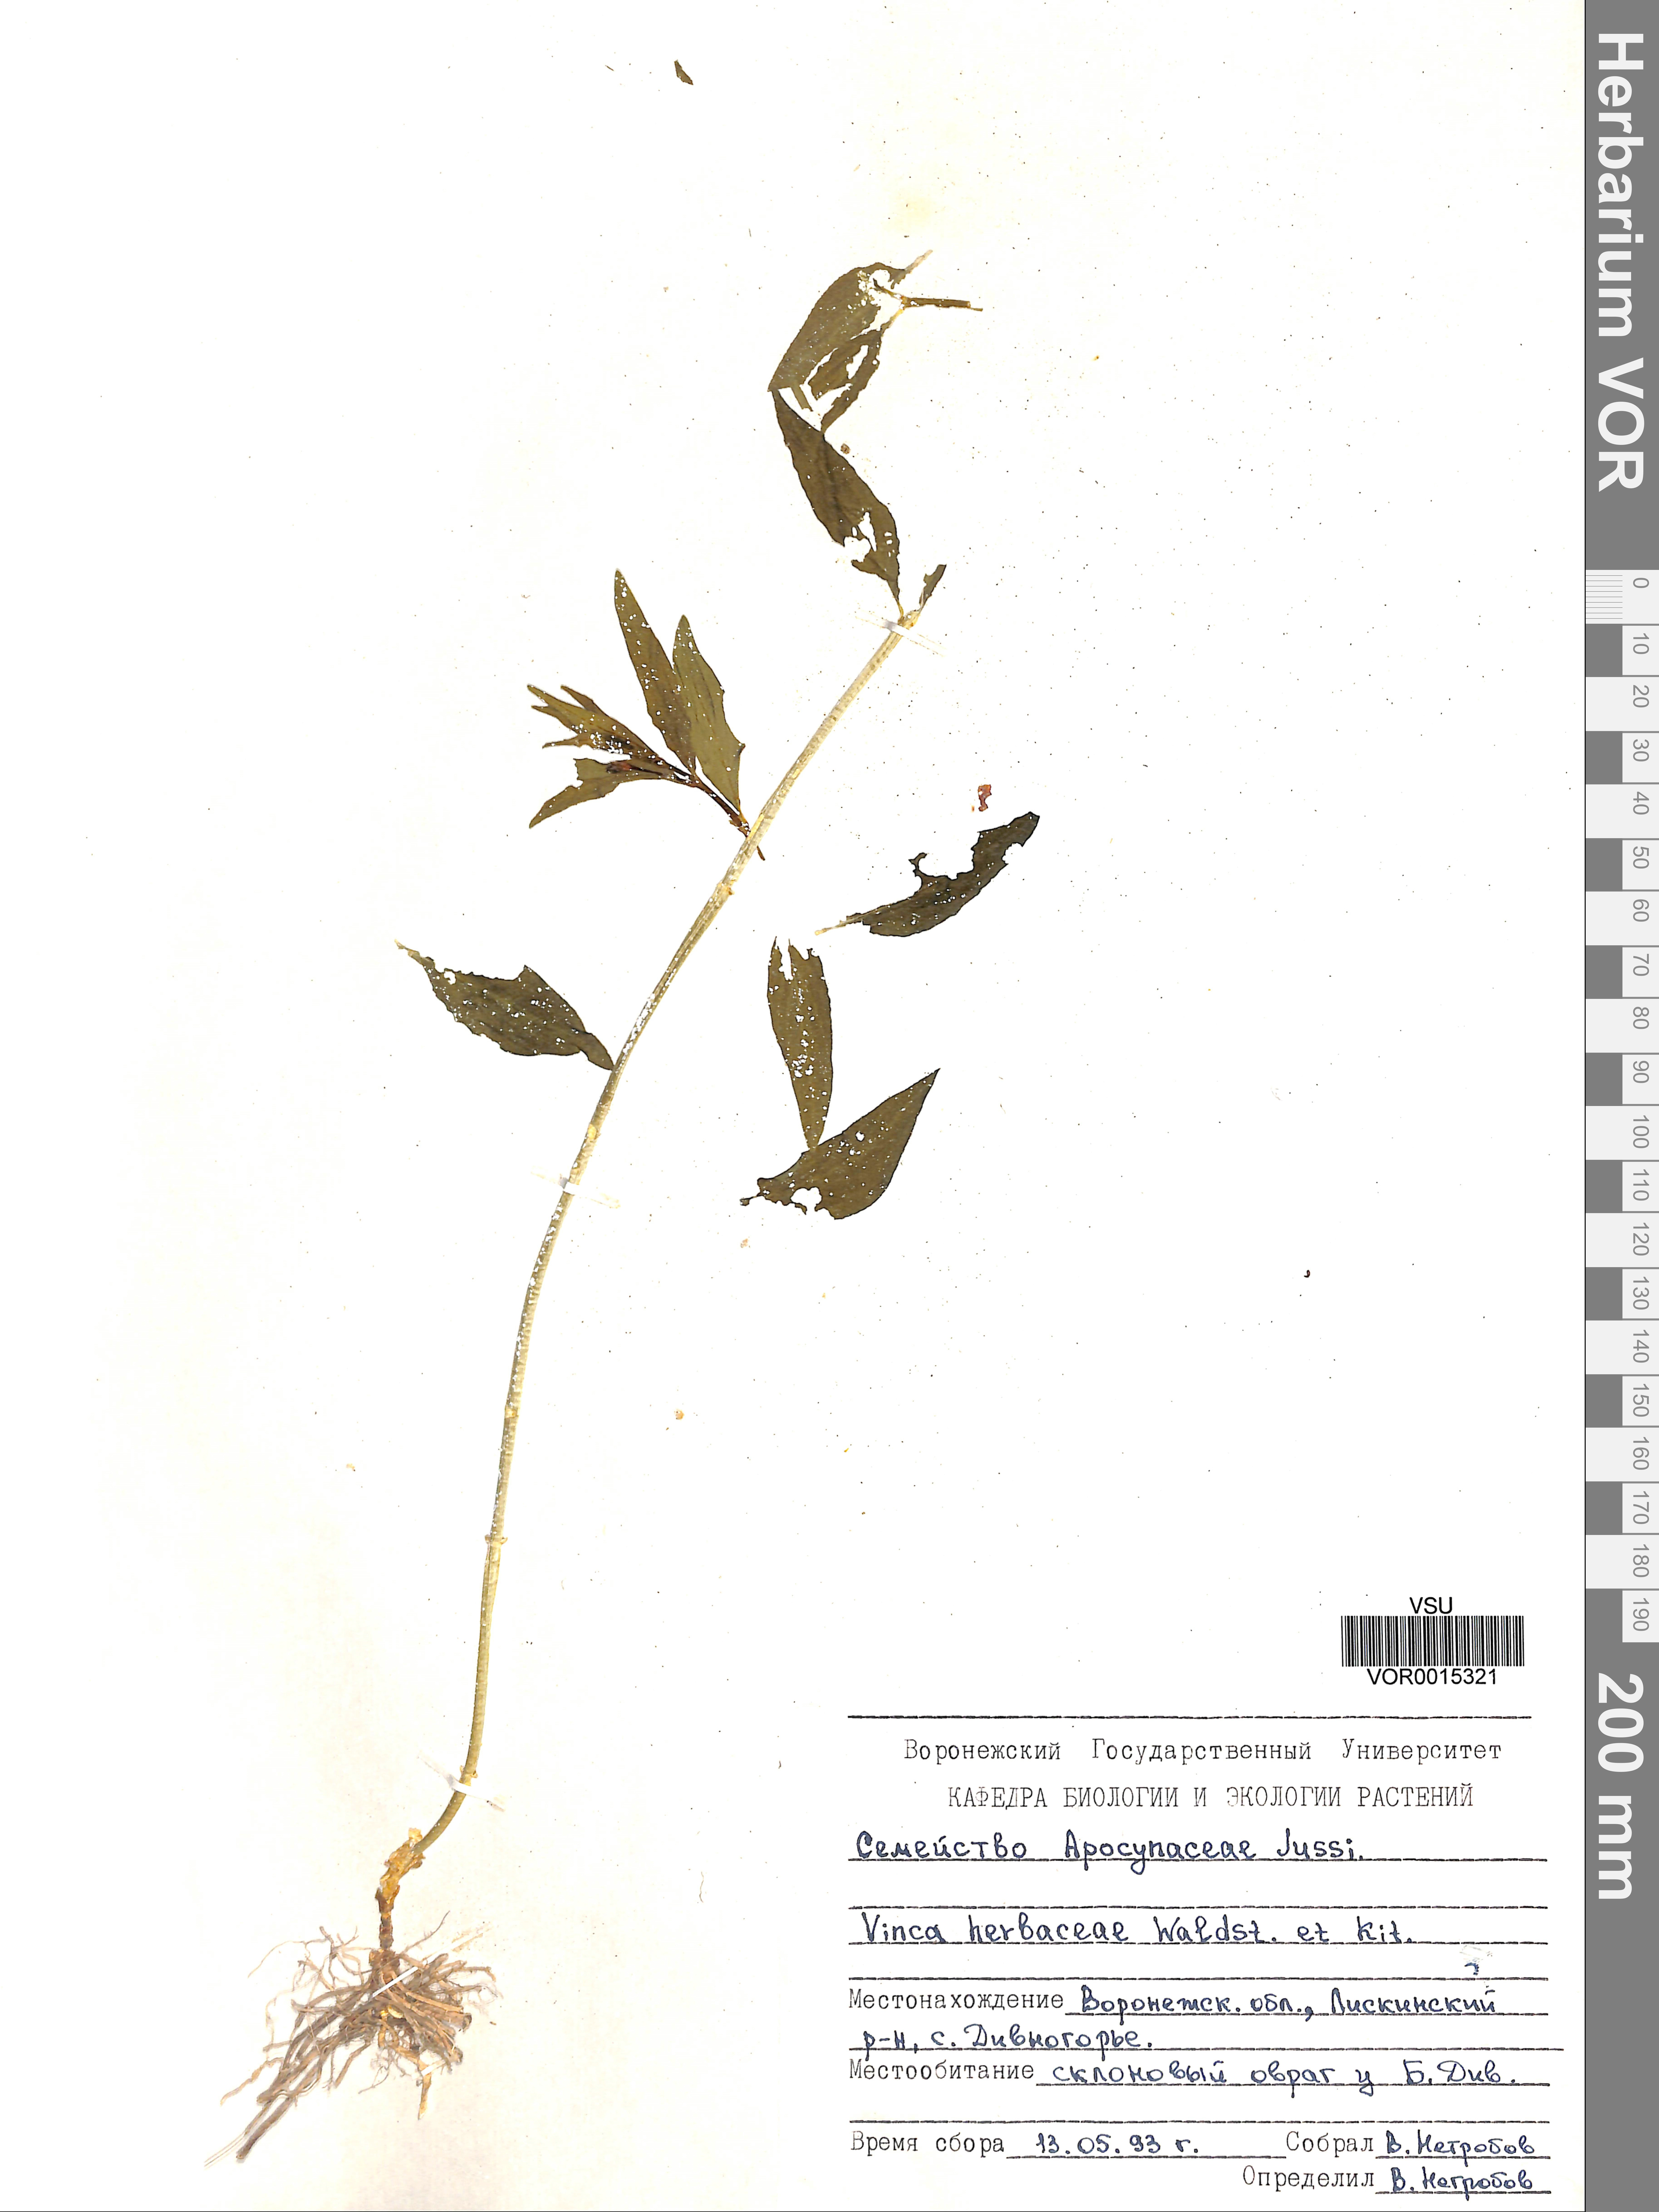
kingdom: Plantae
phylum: Tracheophyta
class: Magnoliopsida
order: Gentianales
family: Apocynaceae
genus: Vinca
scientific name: Vinca herbacea
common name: Herbaceous periwinkle
